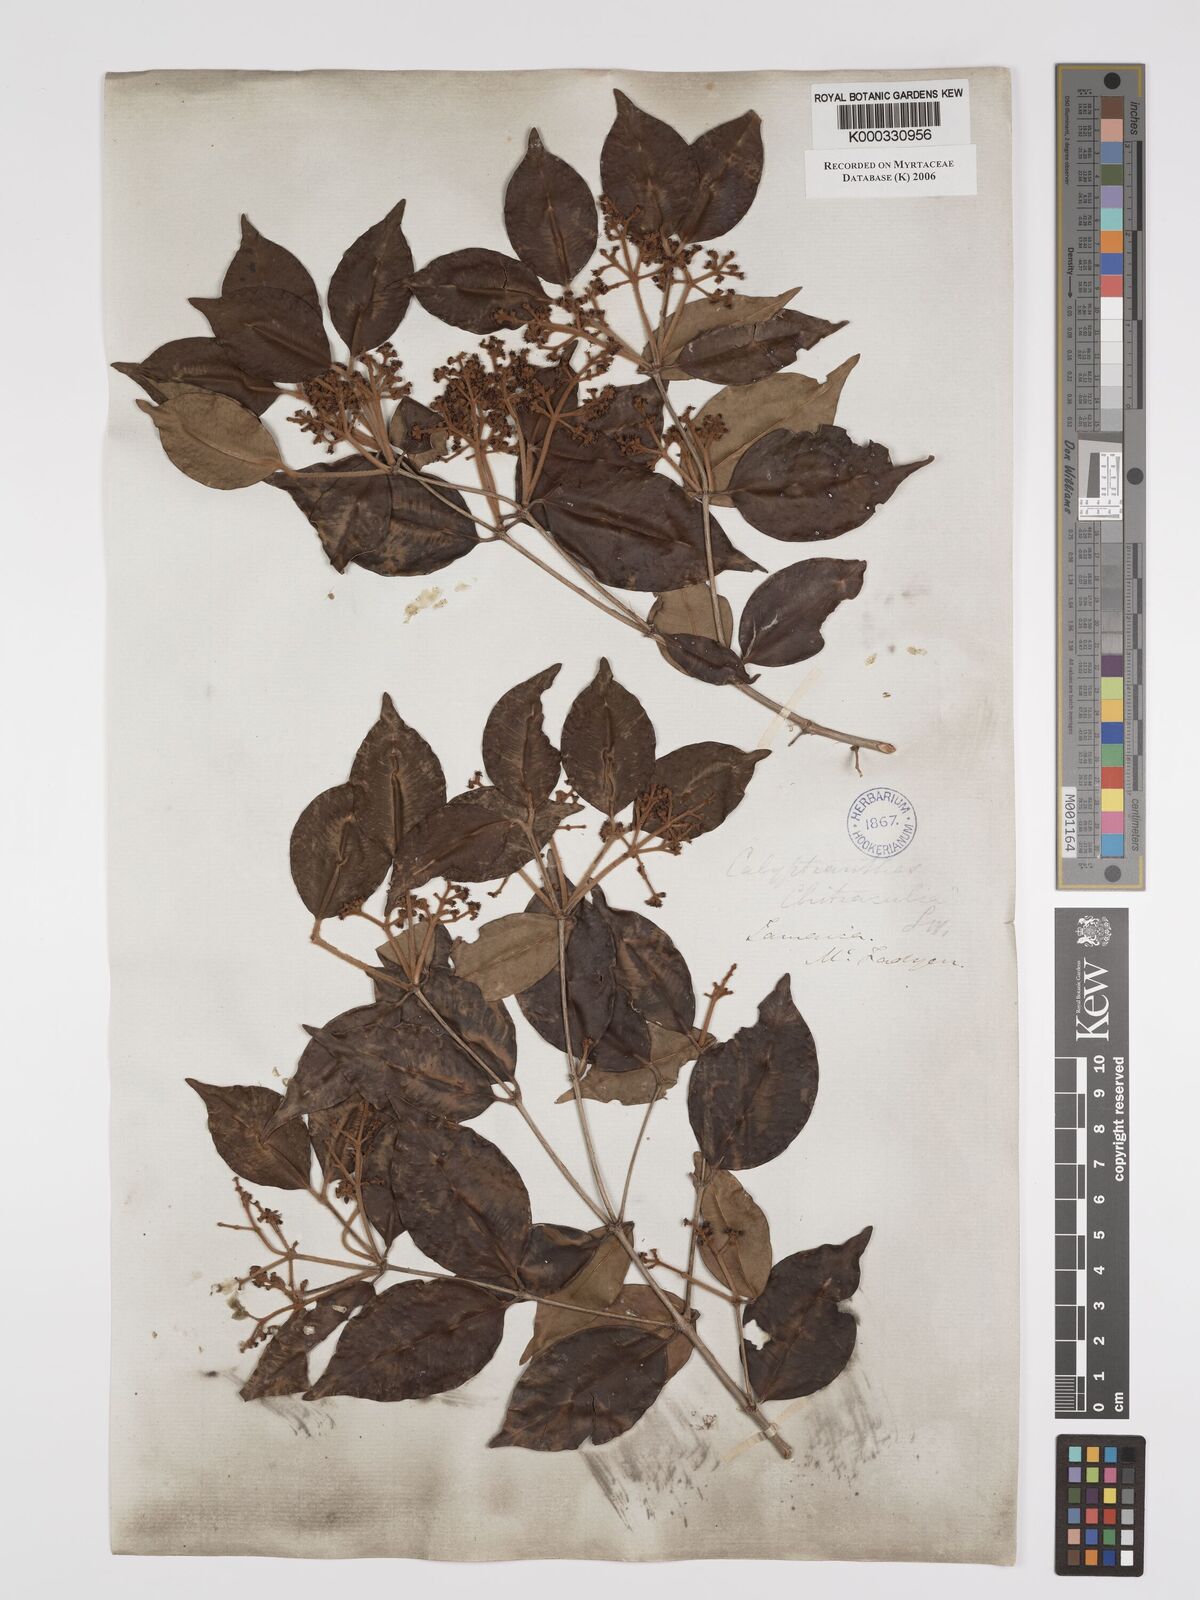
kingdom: Plantae
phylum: Tracheophyta
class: Magnoliopsida
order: Myrtales
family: Myrtaceae
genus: Myrcia
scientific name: Myrcia chytraculia
